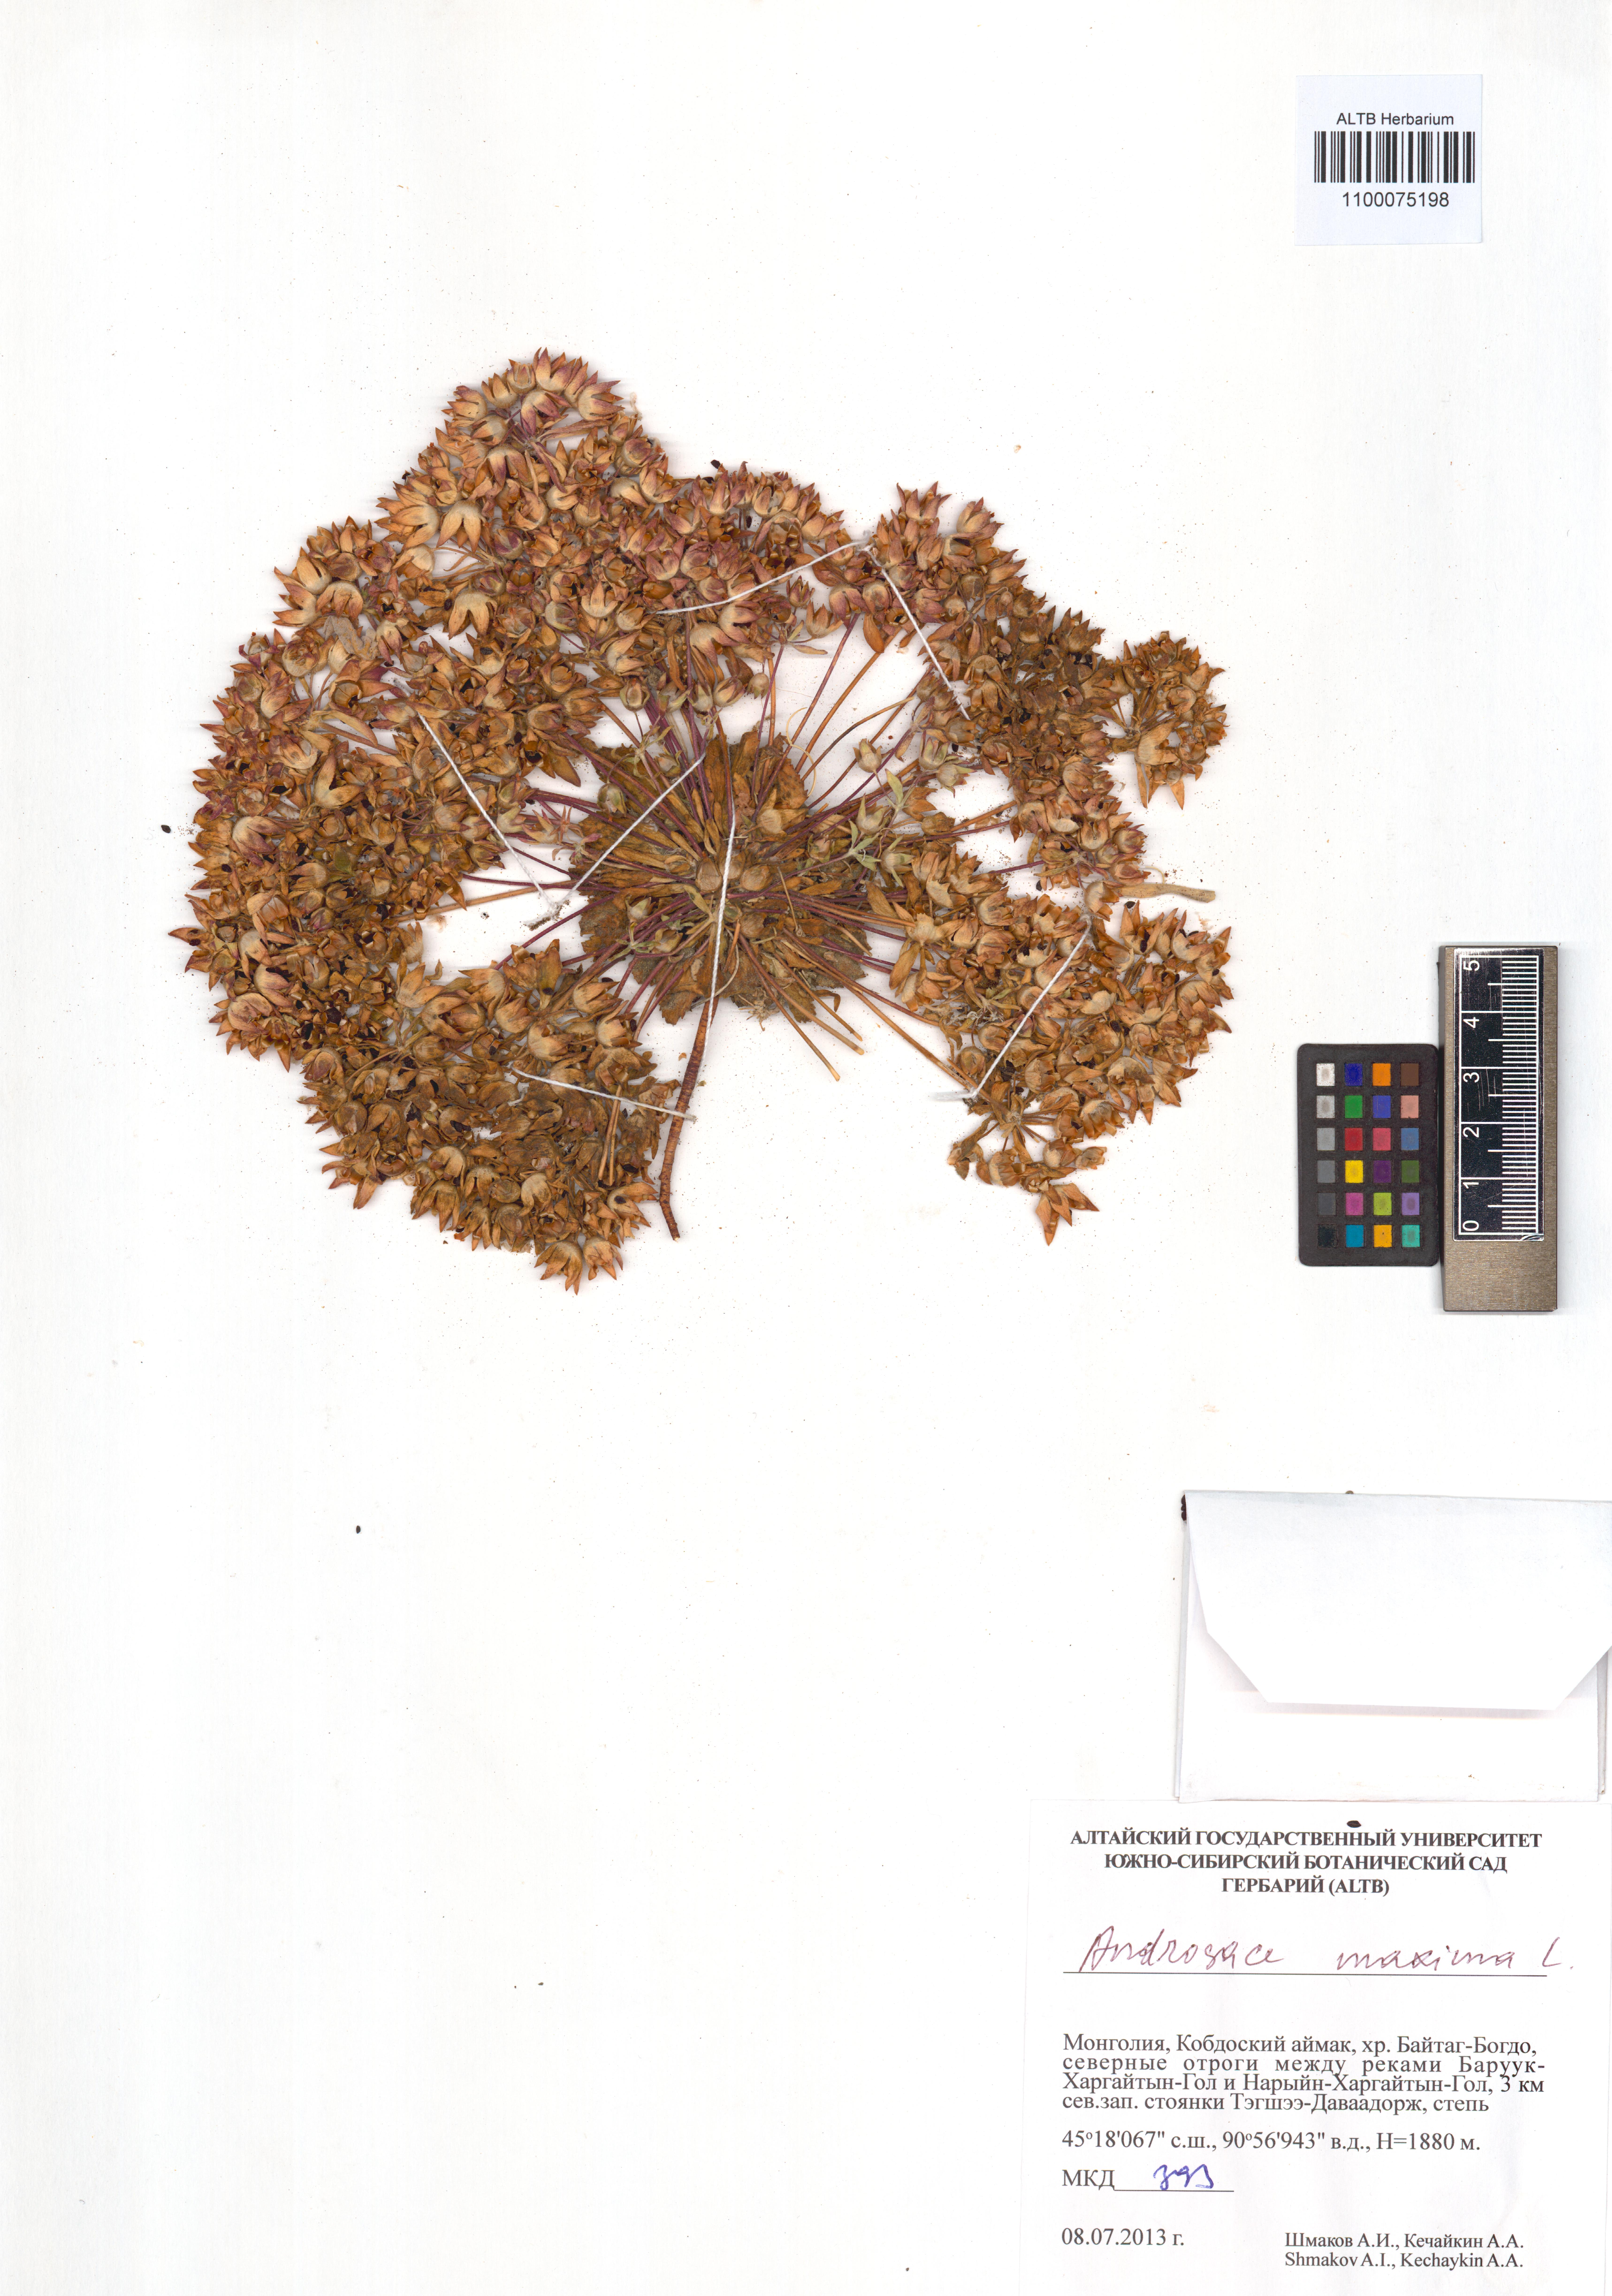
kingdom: Plantae
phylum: Tracheophyta
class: Magnoliopsida
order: Ericales
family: Primulaceae
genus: Androsace
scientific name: Androsace maxima
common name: Annual androsace
